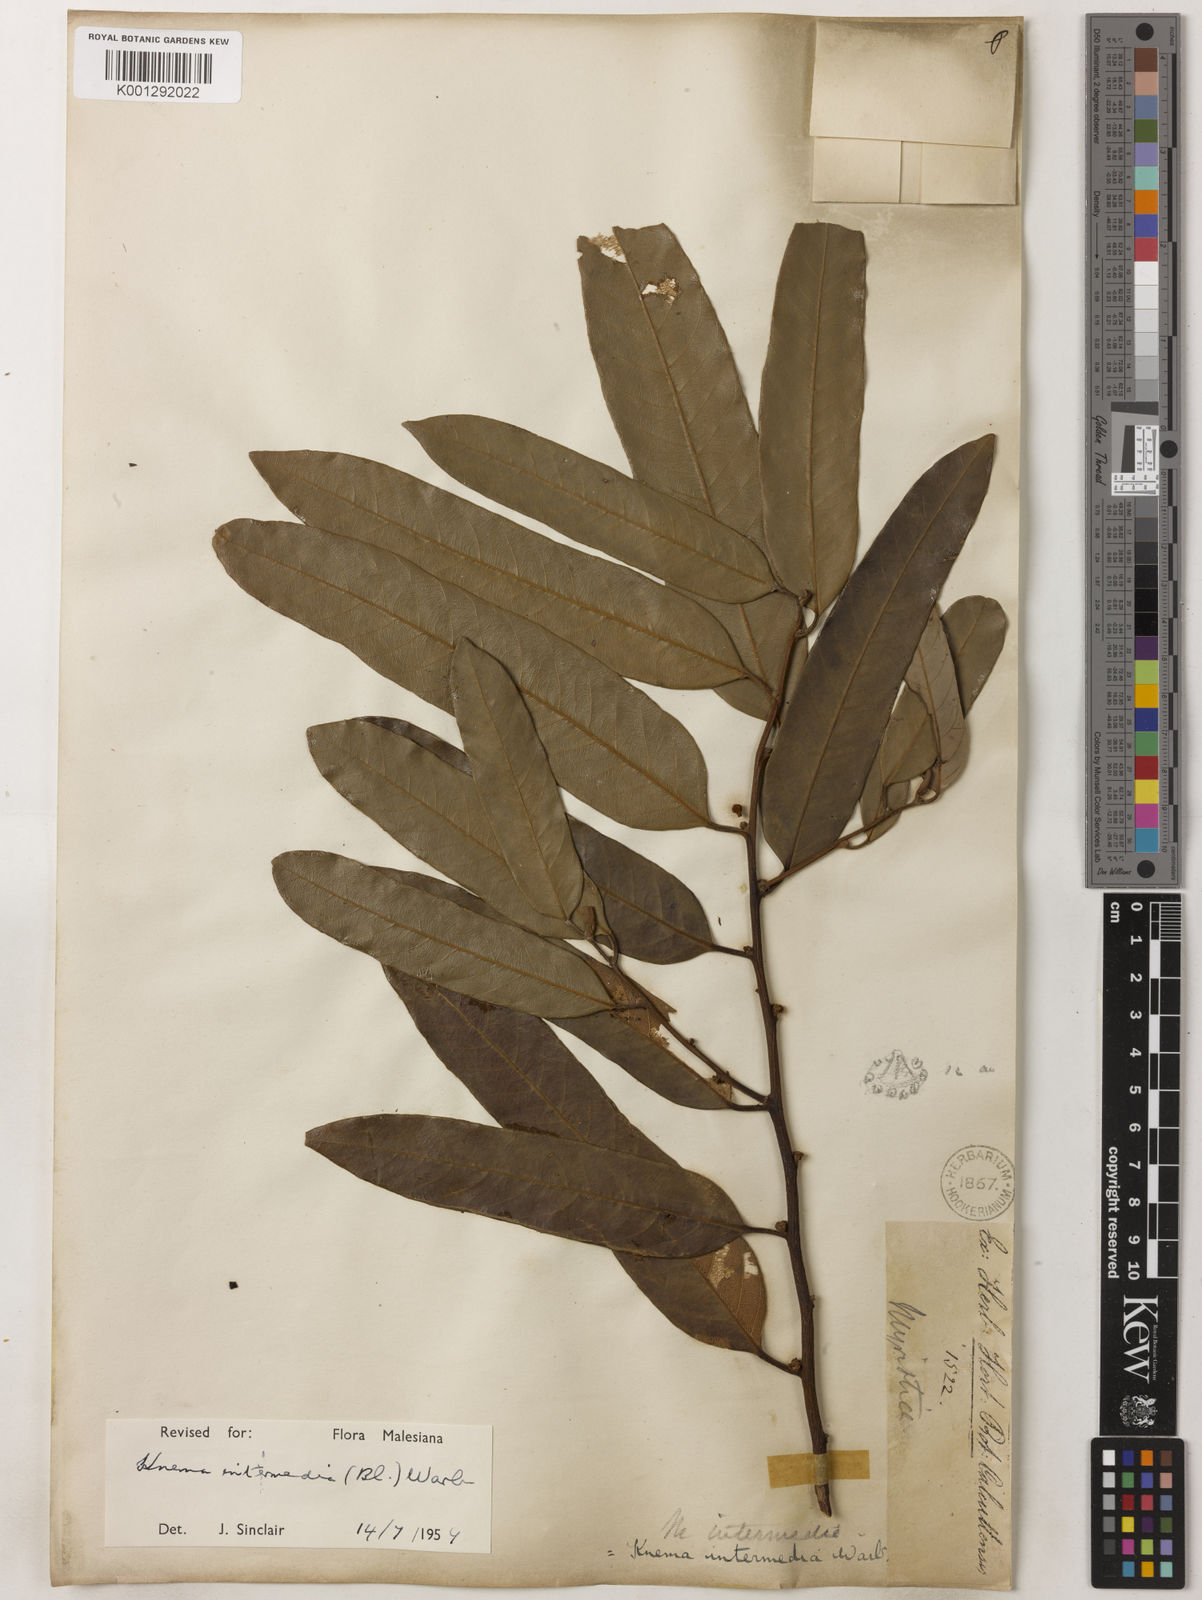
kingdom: Plantae
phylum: Tracheophyta
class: Magnoliopsida
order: Magnoliales
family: Myristicaceae
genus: Knema
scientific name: Knema intermedia
